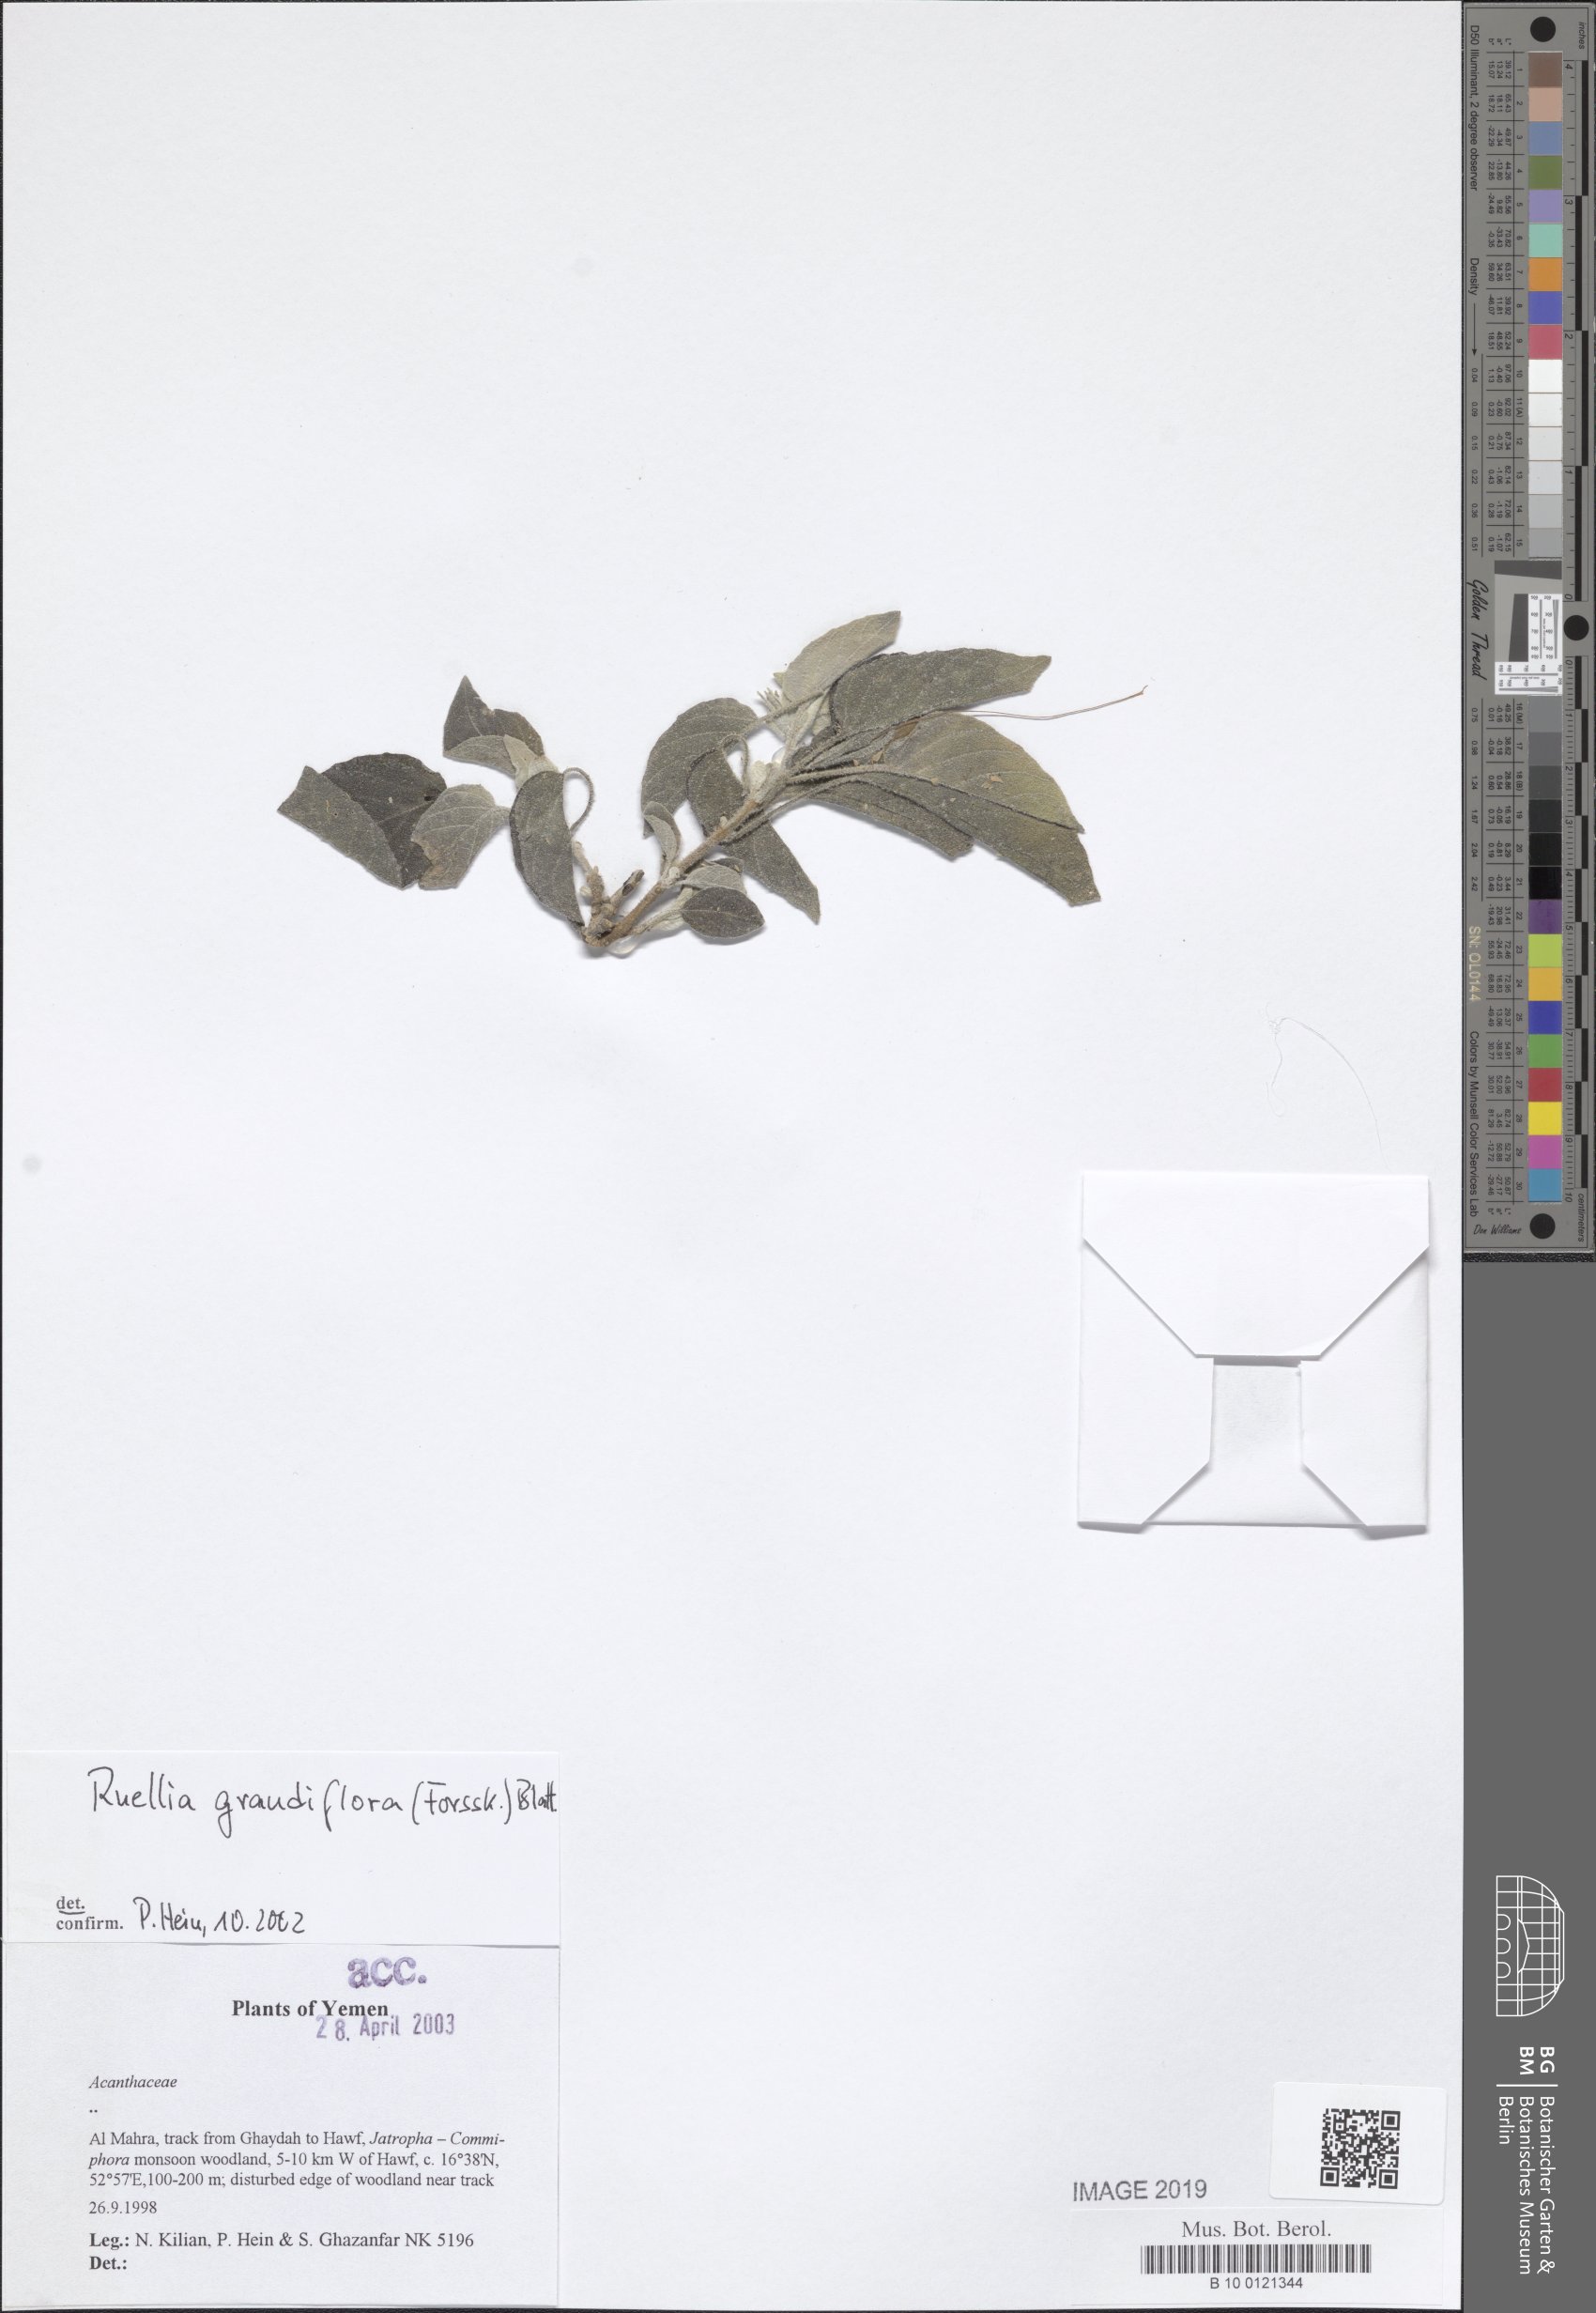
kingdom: Plantae
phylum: Tracheophyta
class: Magnoliopsida
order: Lamiales
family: Acanthaceae
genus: Ruellia
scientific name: Ruellia grandiflora
